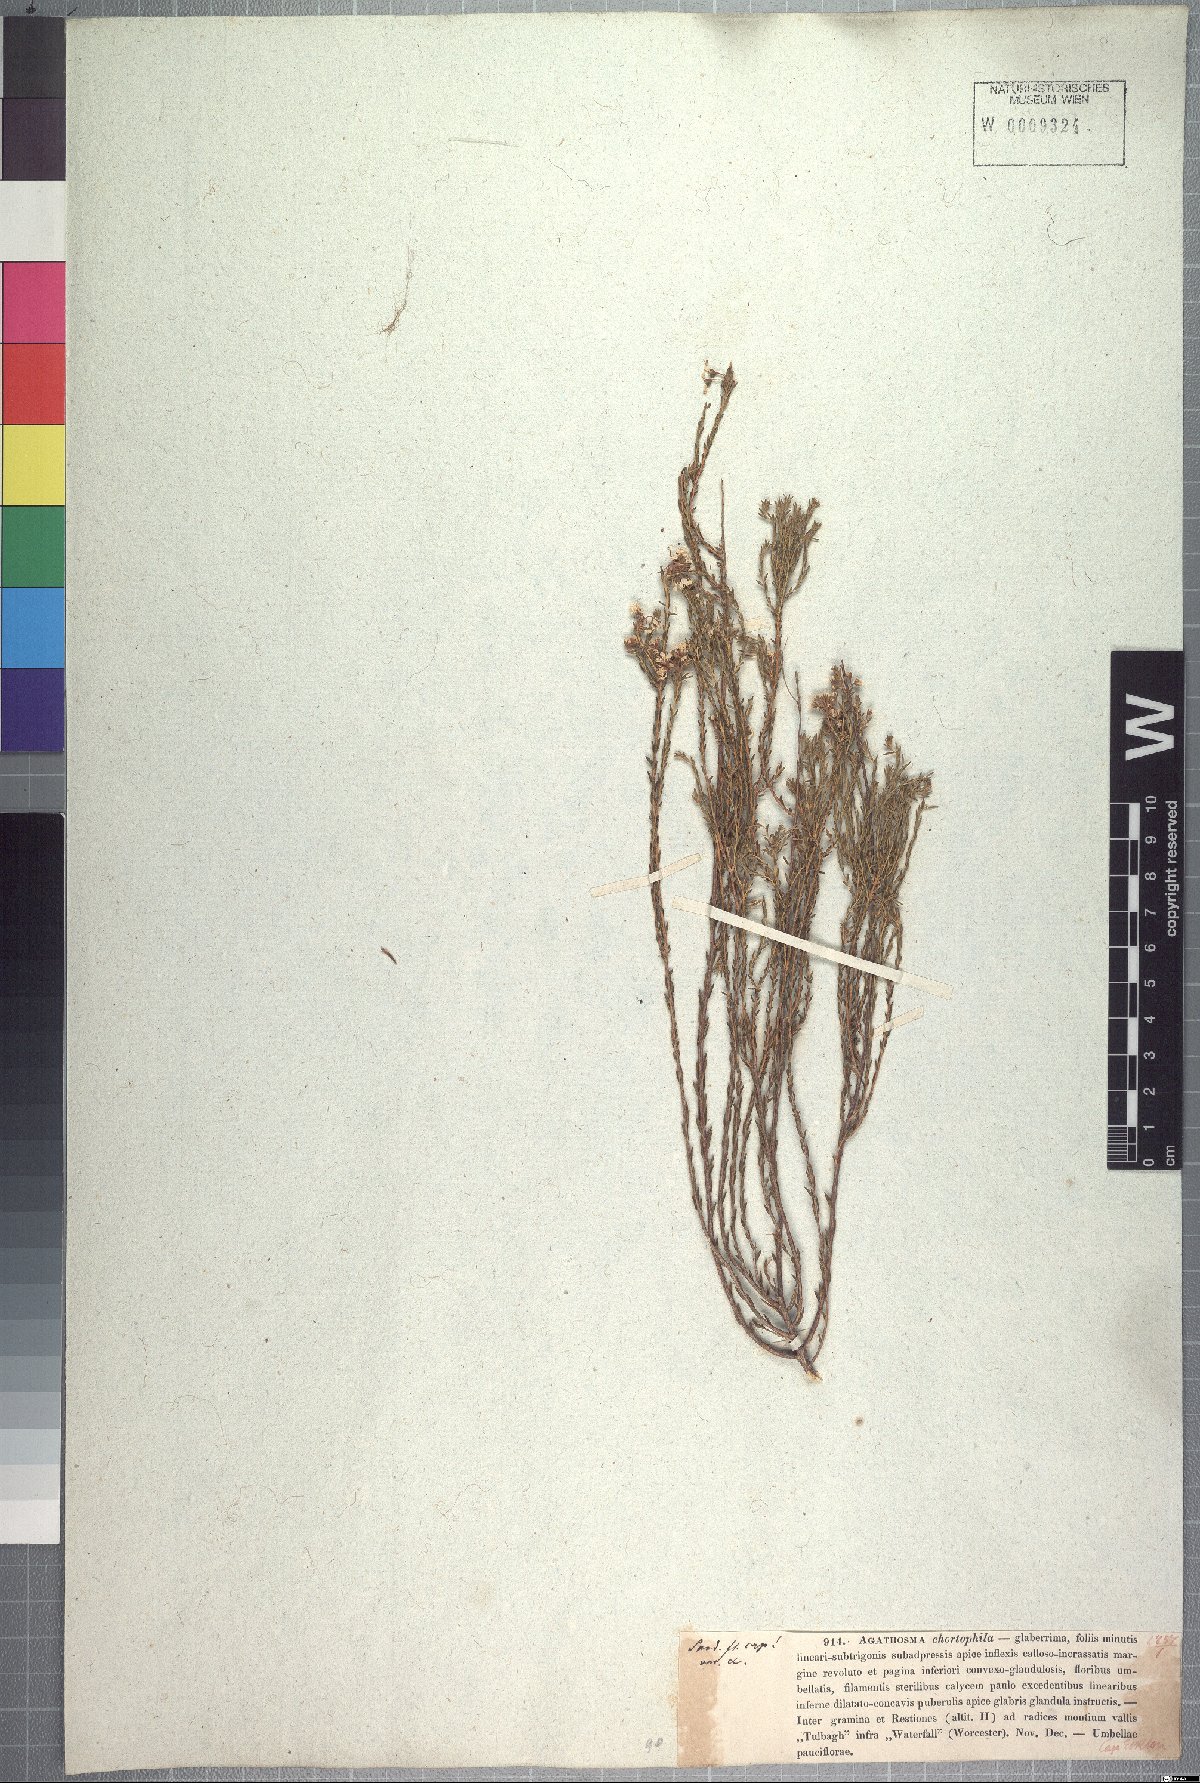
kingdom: Plantae
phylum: Tracheophyta
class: Magnoliopsida
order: Sapindales
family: Rutaceae
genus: Agathosma
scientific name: Agathosma capensis
